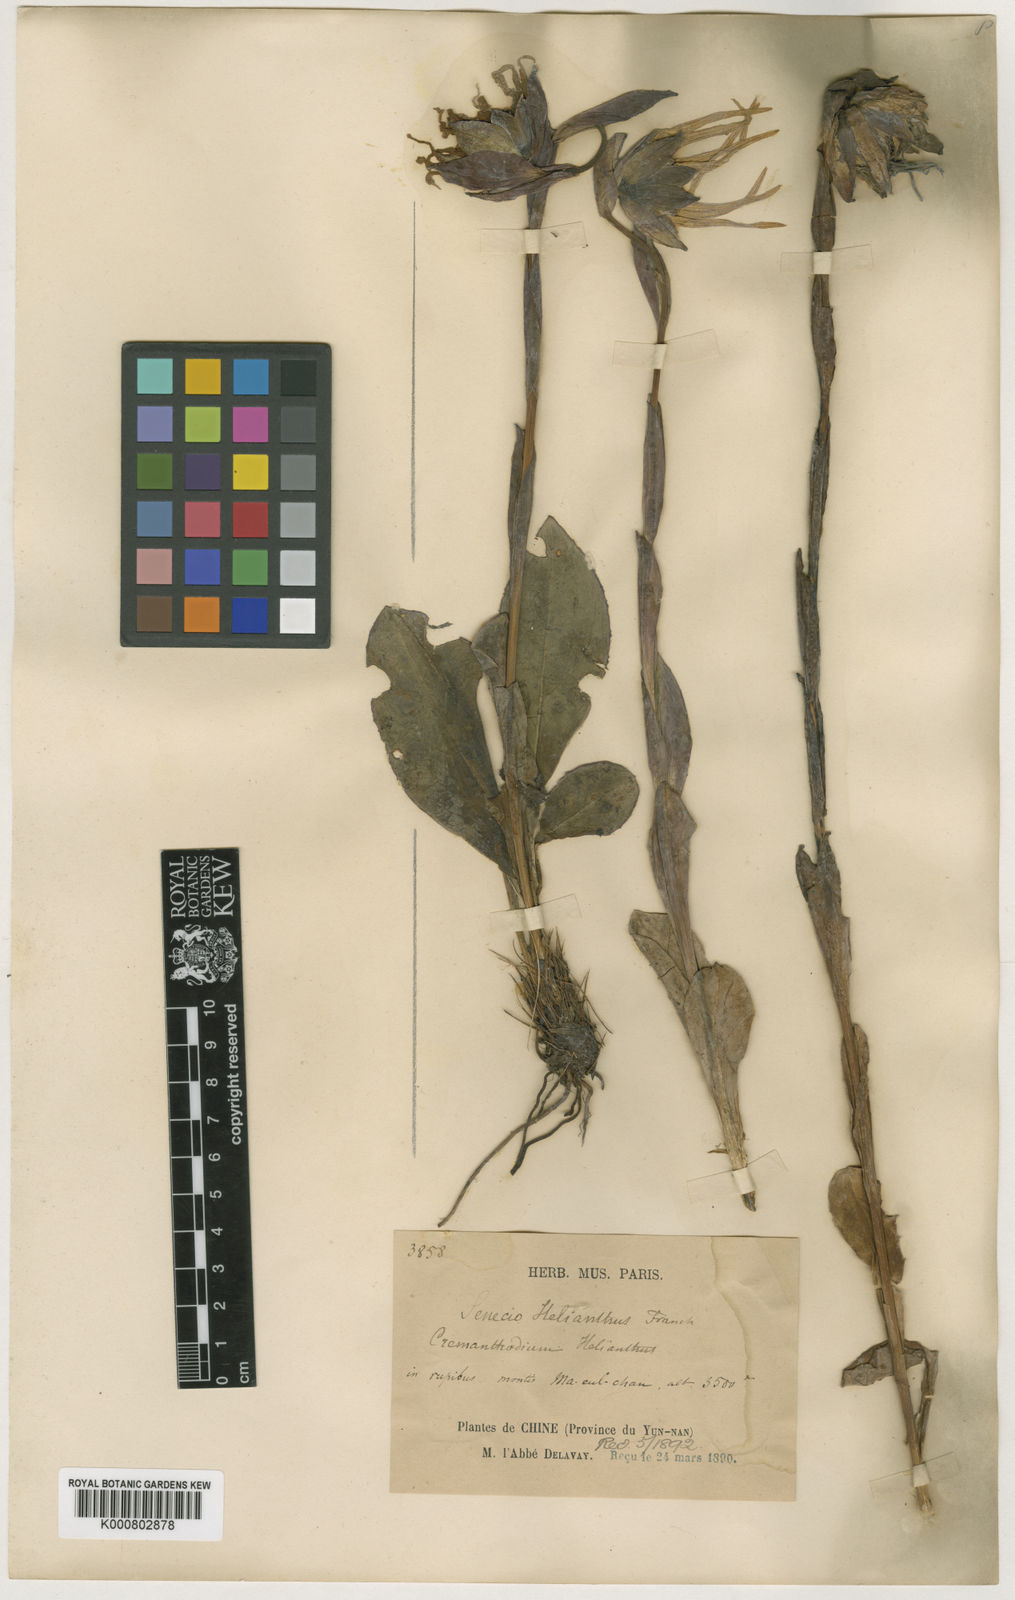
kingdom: Plantae
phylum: Tracheophyta
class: Magnoliopsida
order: Asterales
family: Asteraceae
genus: Cremanthodium
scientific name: Cremanthodium helianthus
